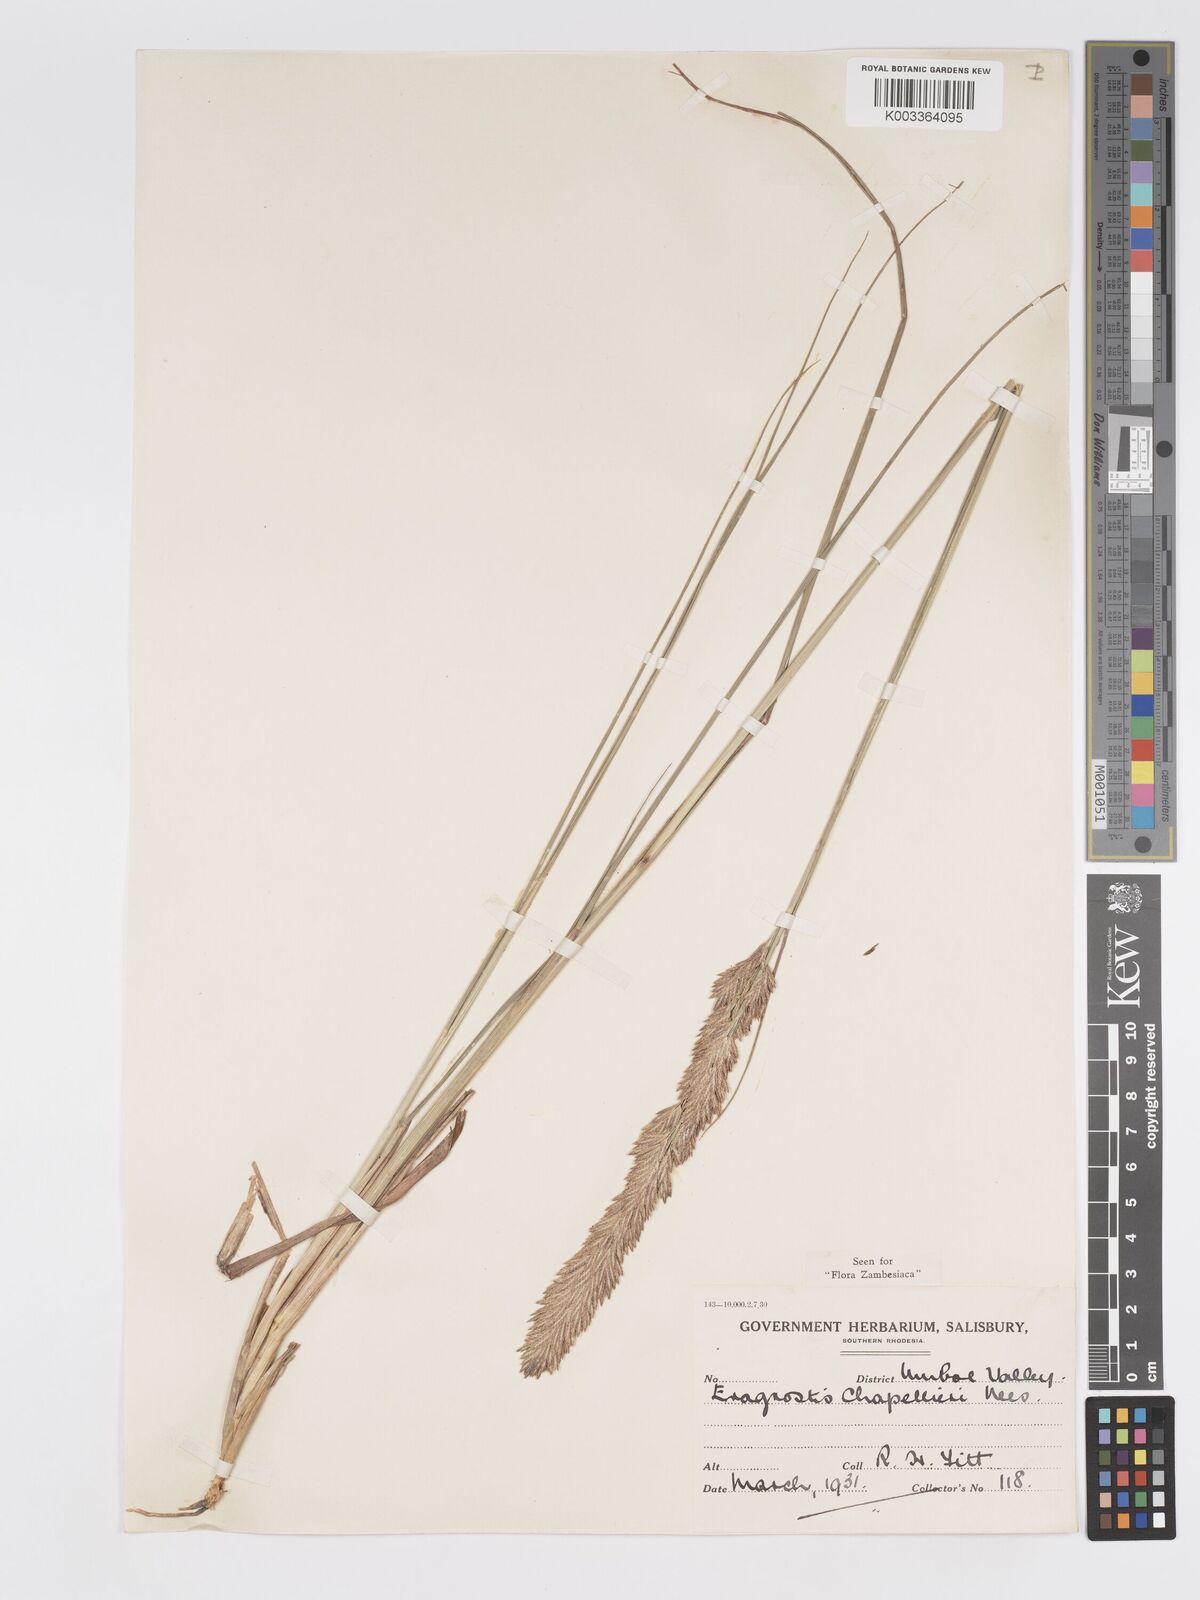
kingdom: Plantae
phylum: Tracheophyta
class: Liliopsida
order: Poales
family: Poaceae
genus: Eragrostis
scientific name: Eragrostis chapelieri
